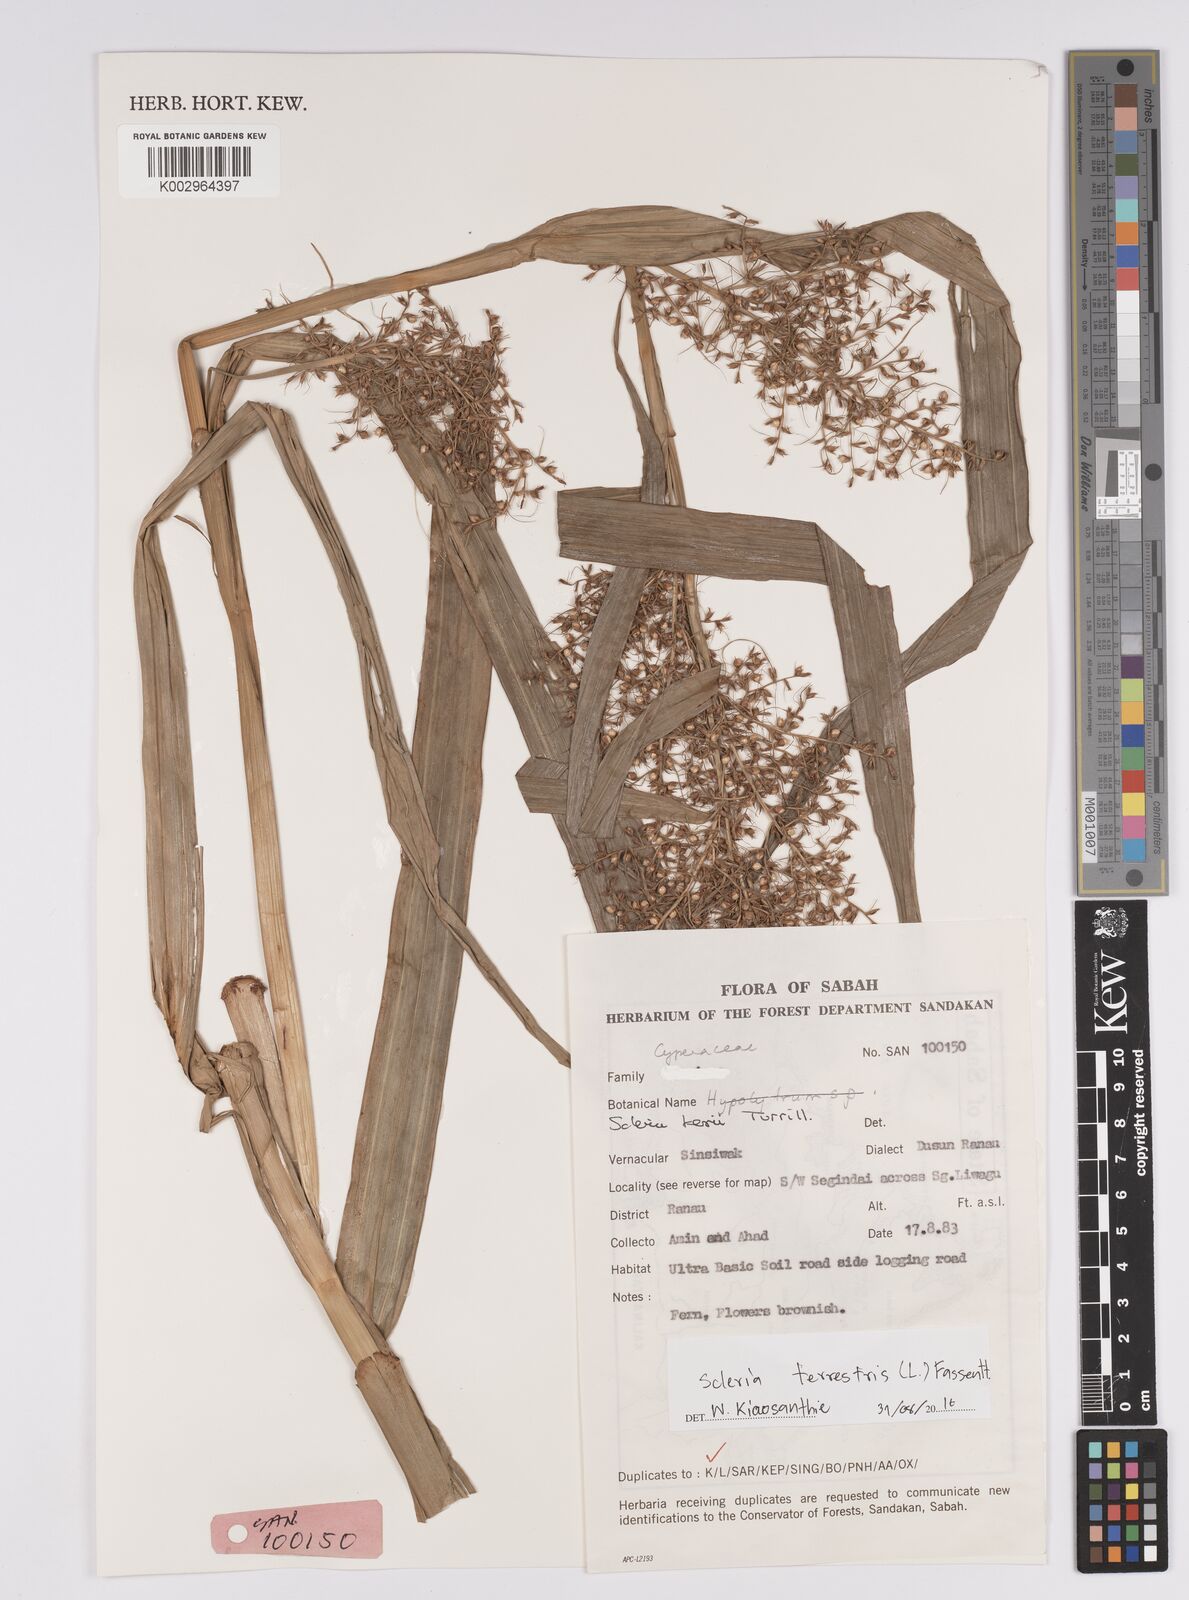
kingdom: Plantae
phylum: Tracheophyta
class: Liliopsida
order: Poales
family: Cyperaceae
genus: Scleria
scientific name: Scleria terrestris
